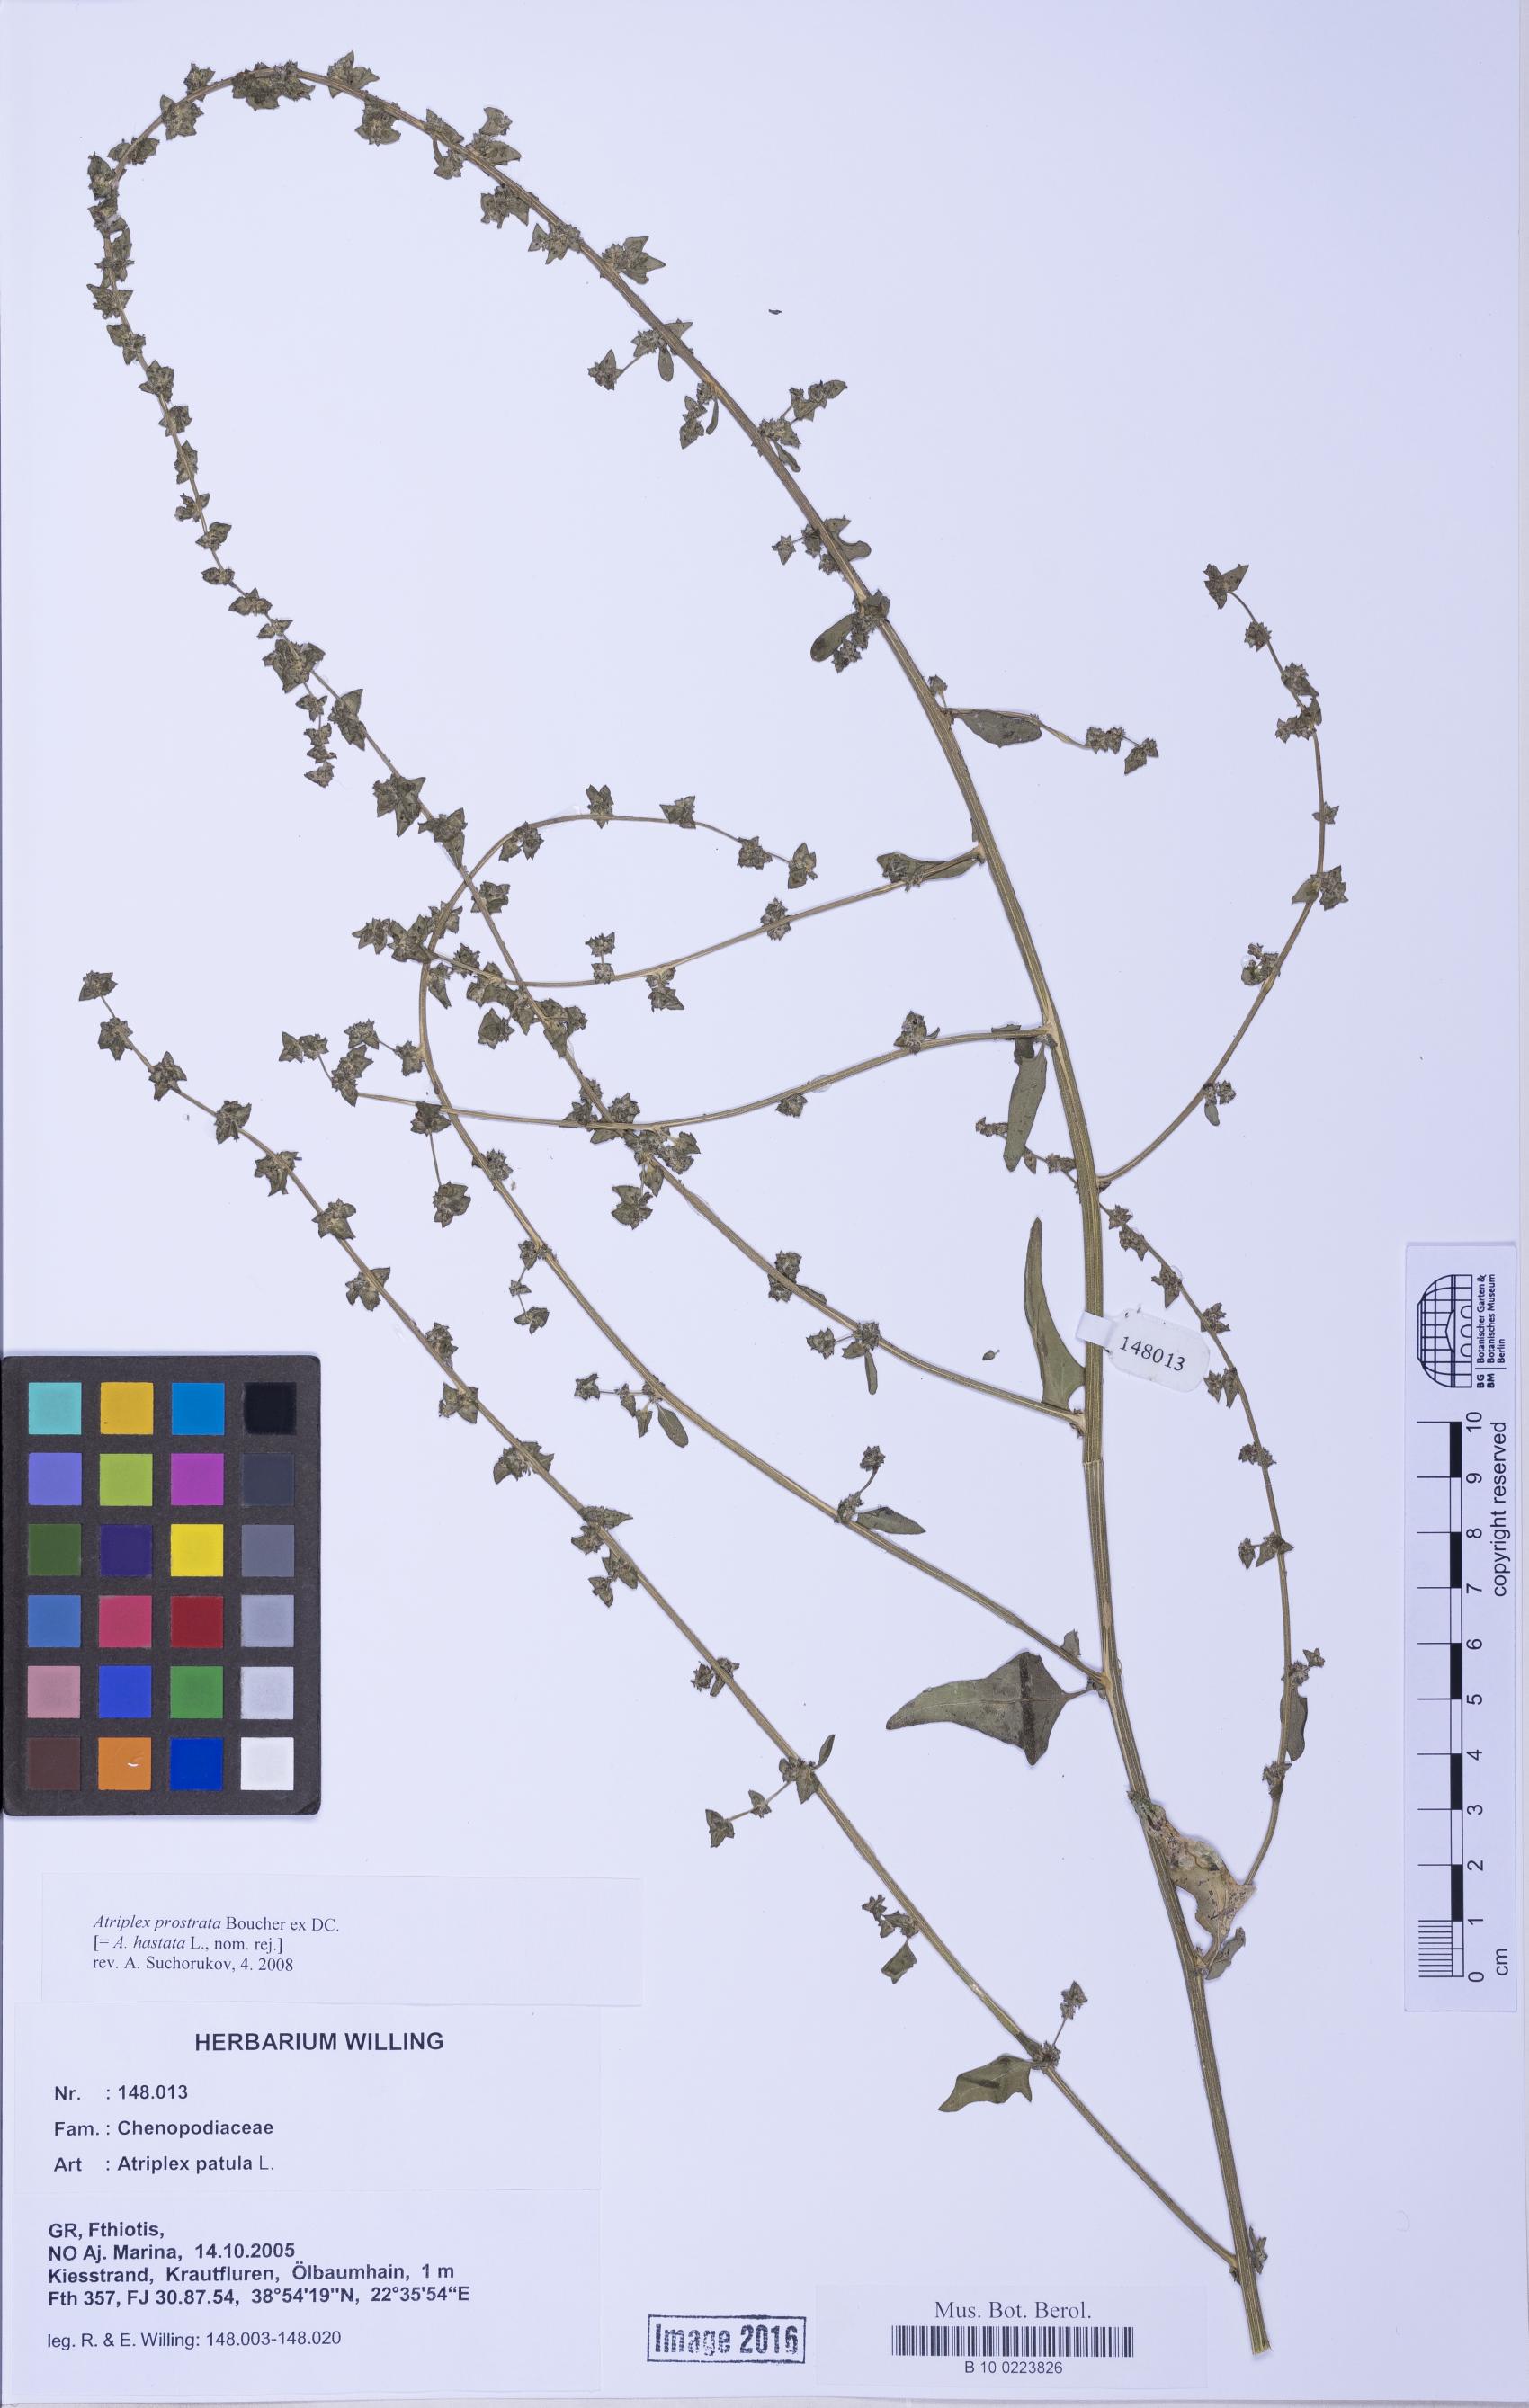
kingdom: Plantae
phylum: Tracheophyta
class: Magnoliopsida
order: Caryophyllales
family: Amaranthaceae
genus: Atriplex
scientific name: Atriplex prostrata
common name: Spear-leaved orache
